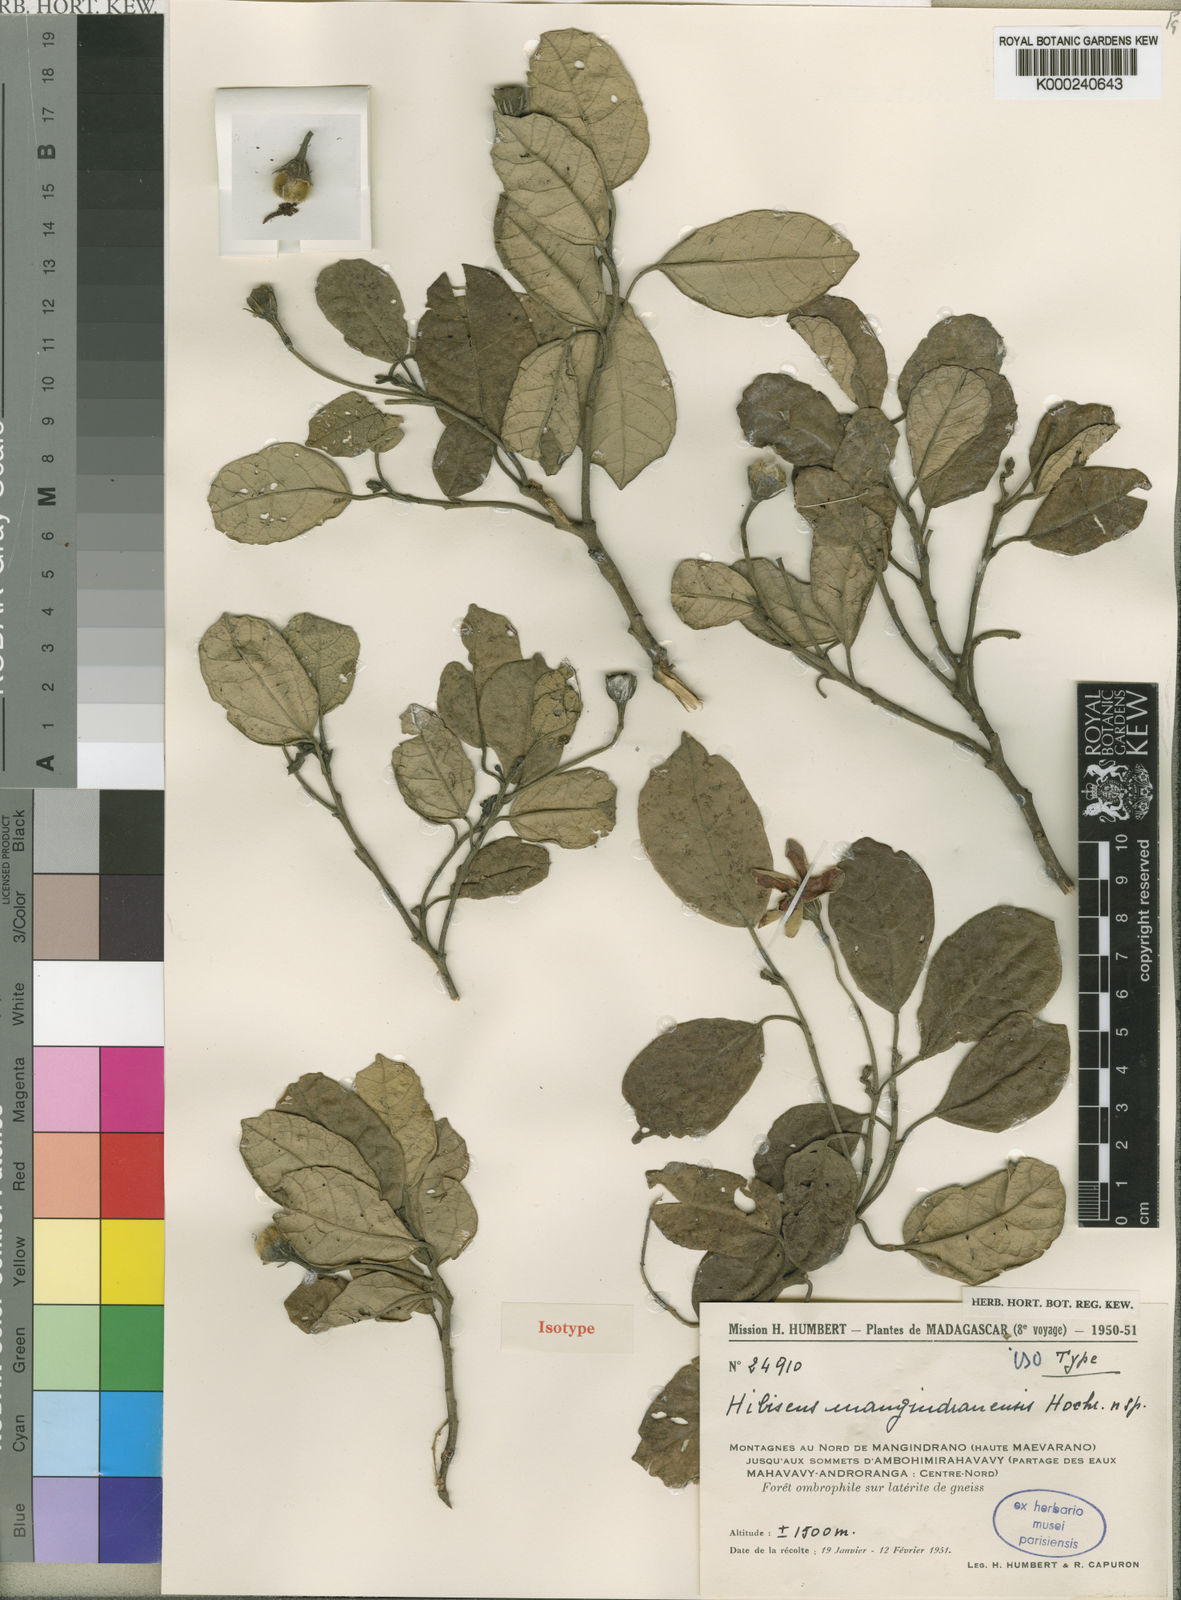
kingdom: Plantae
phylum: Tracheophyta
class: Magnoliopsida
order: Malvales
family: Malvaceae
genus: Hibiscus
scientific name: Hibiscus mangindranensis
